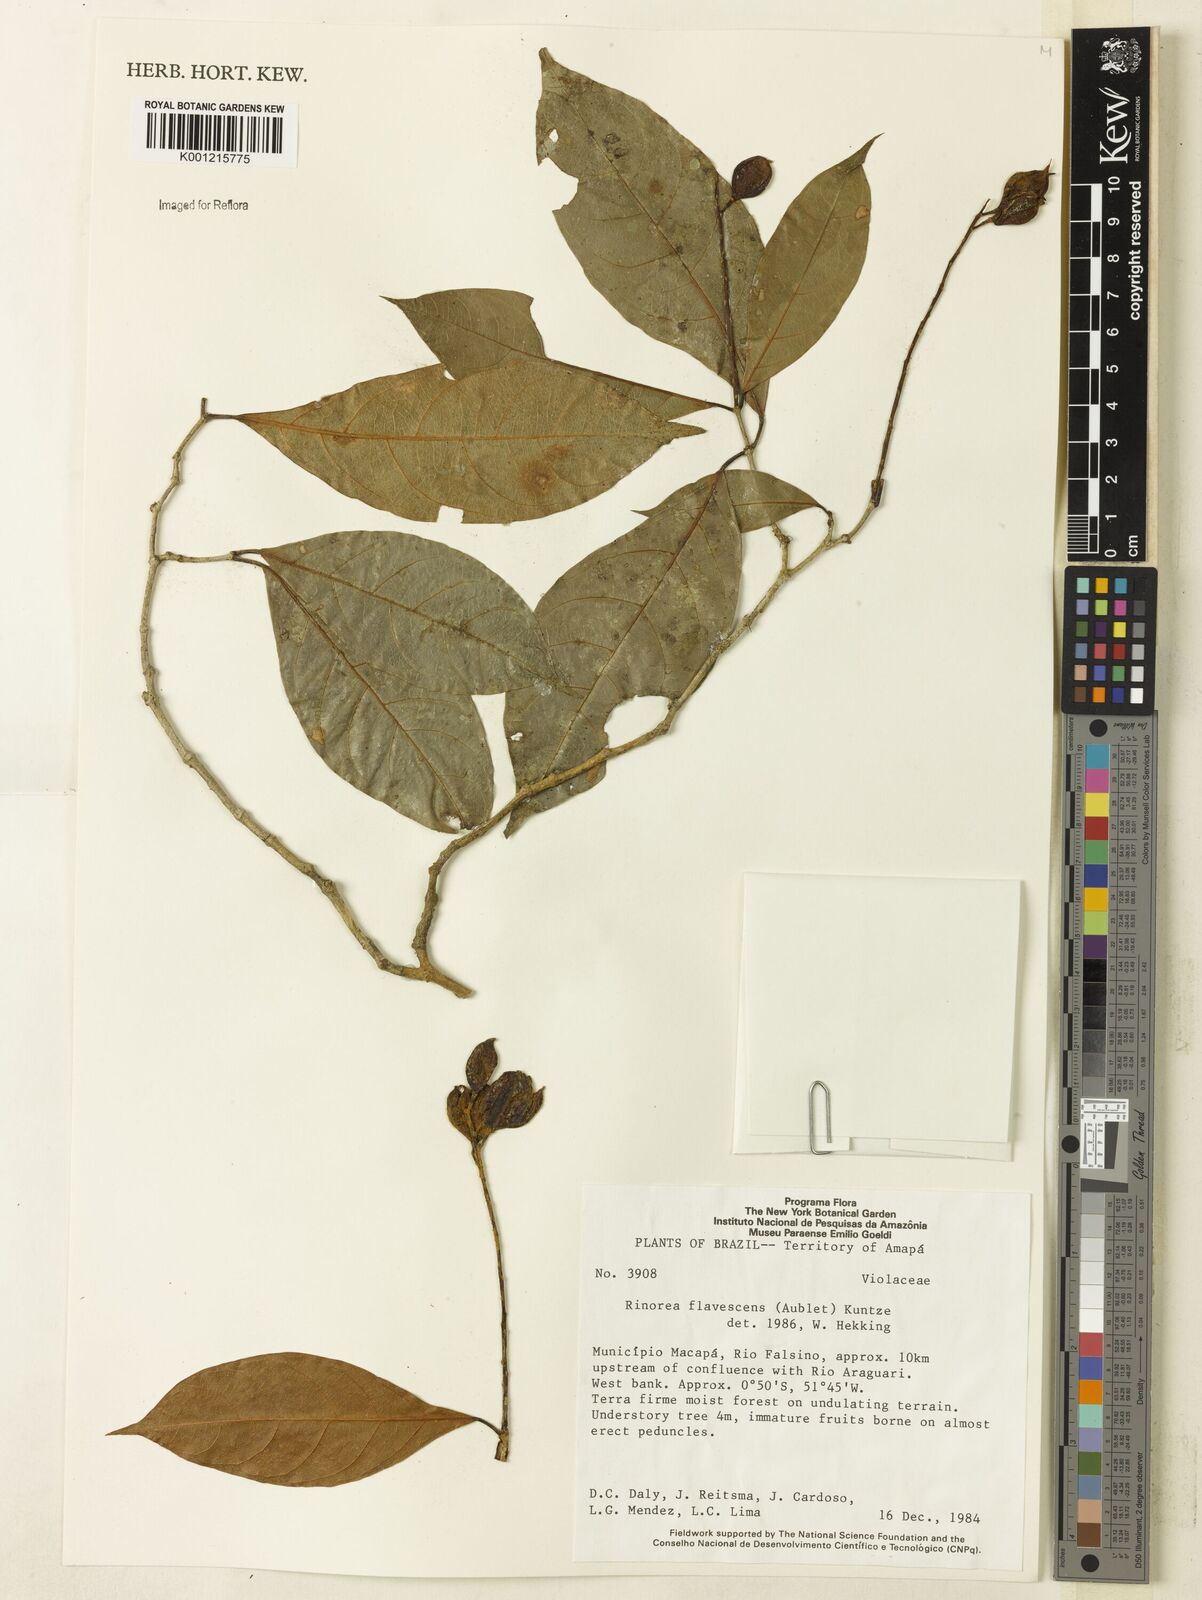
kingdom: Plantae
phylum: Tracheophyta
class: Magnoliopsida
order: Malpighiales
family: Violaceae
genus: Rinorea
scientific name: Rinorea flavescens
